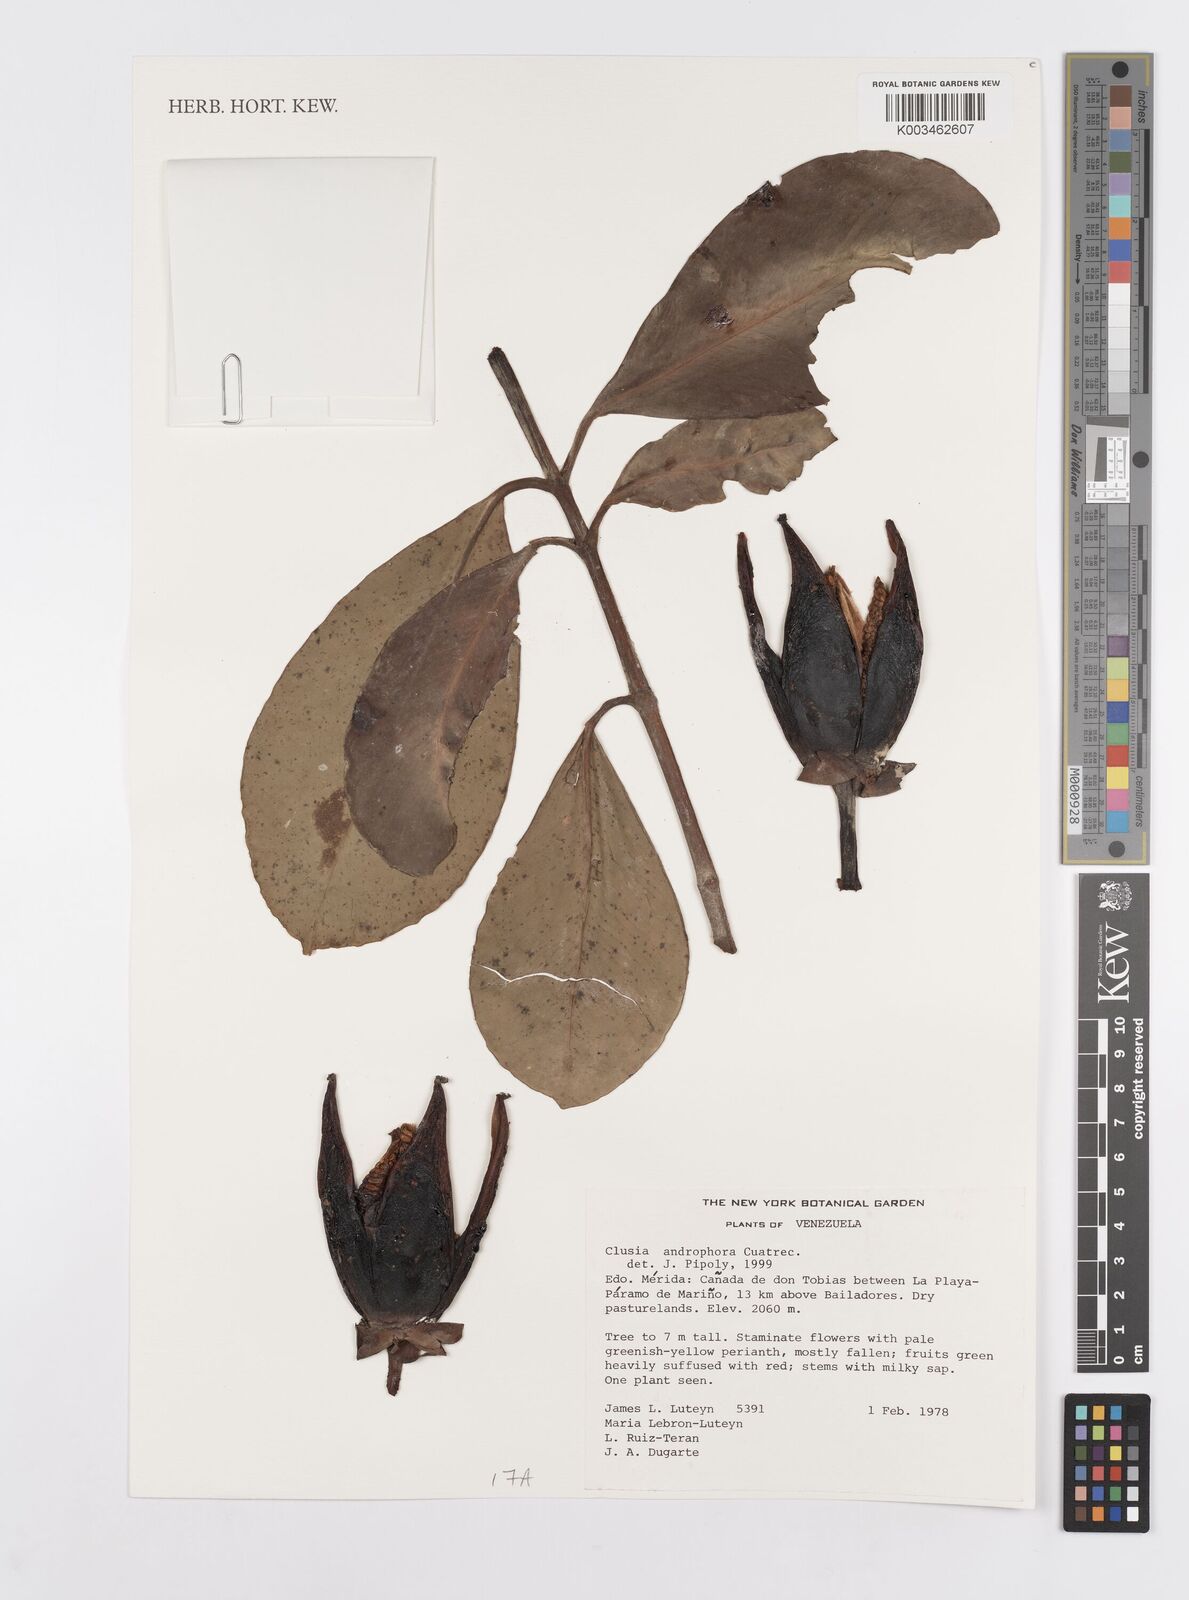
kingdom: Plantae
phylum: Tracheophyta
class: Magnoliopsida
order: Malpighiales
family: Clusiaceae
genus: Clusia
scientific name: Clusia androphora
